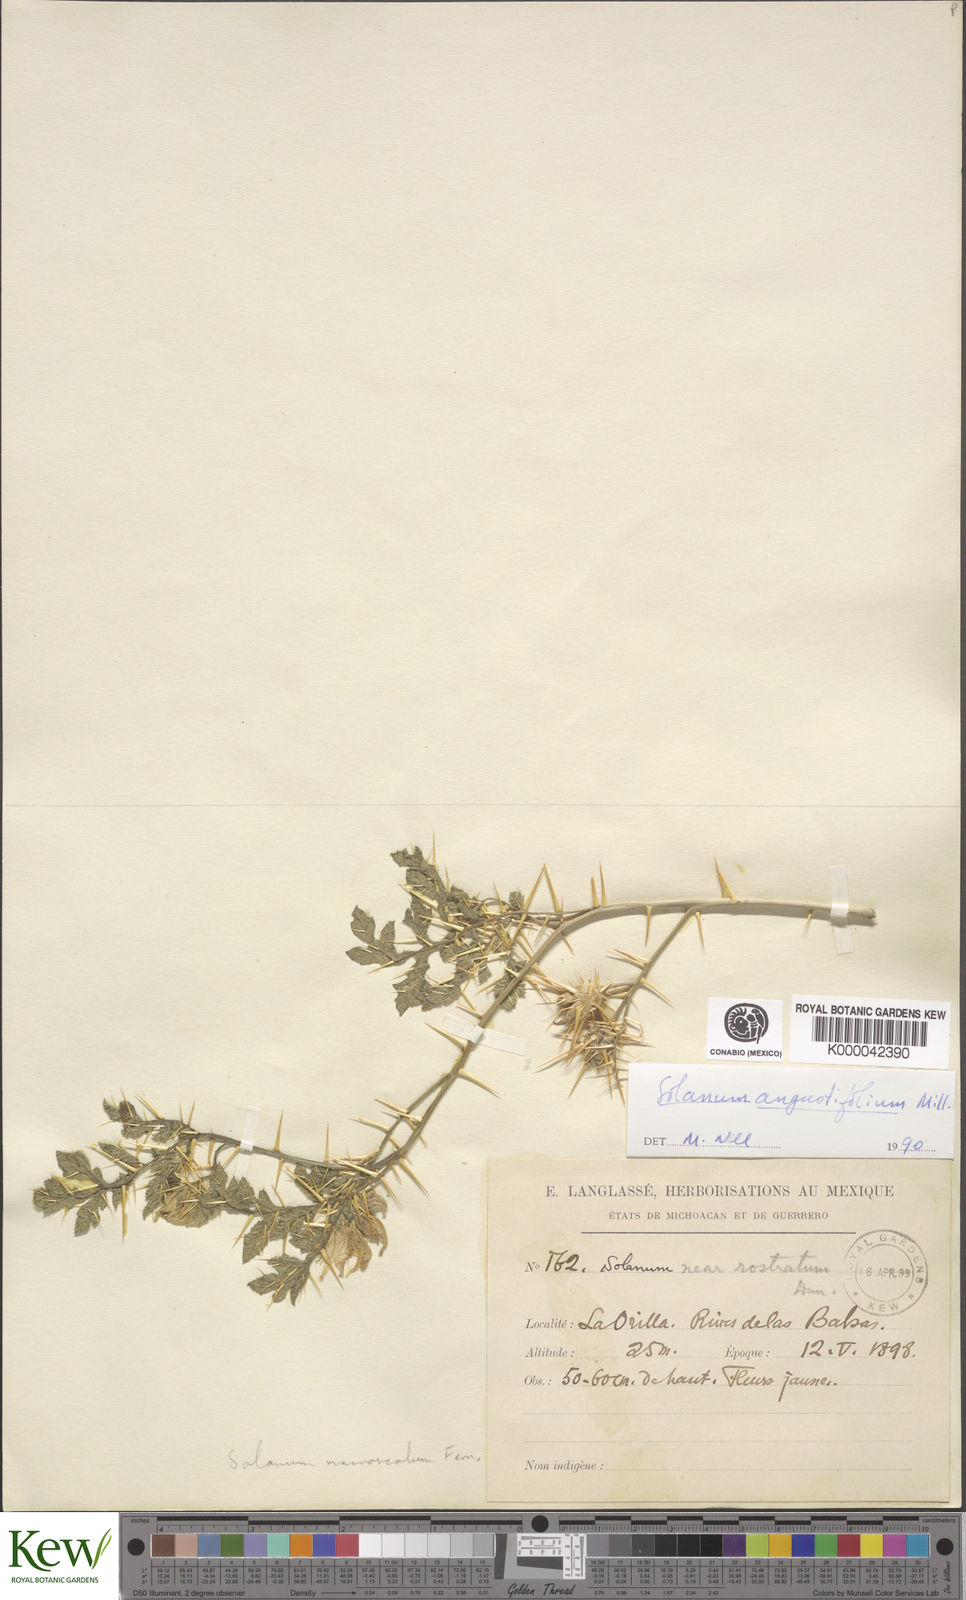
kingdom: Plantae
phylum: Tracheophyta
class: Magnoliopsida
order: Solanales
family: Solanaceae
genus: Solanum
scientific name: Solanum angustifolium
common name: Buffalobur nightshade
